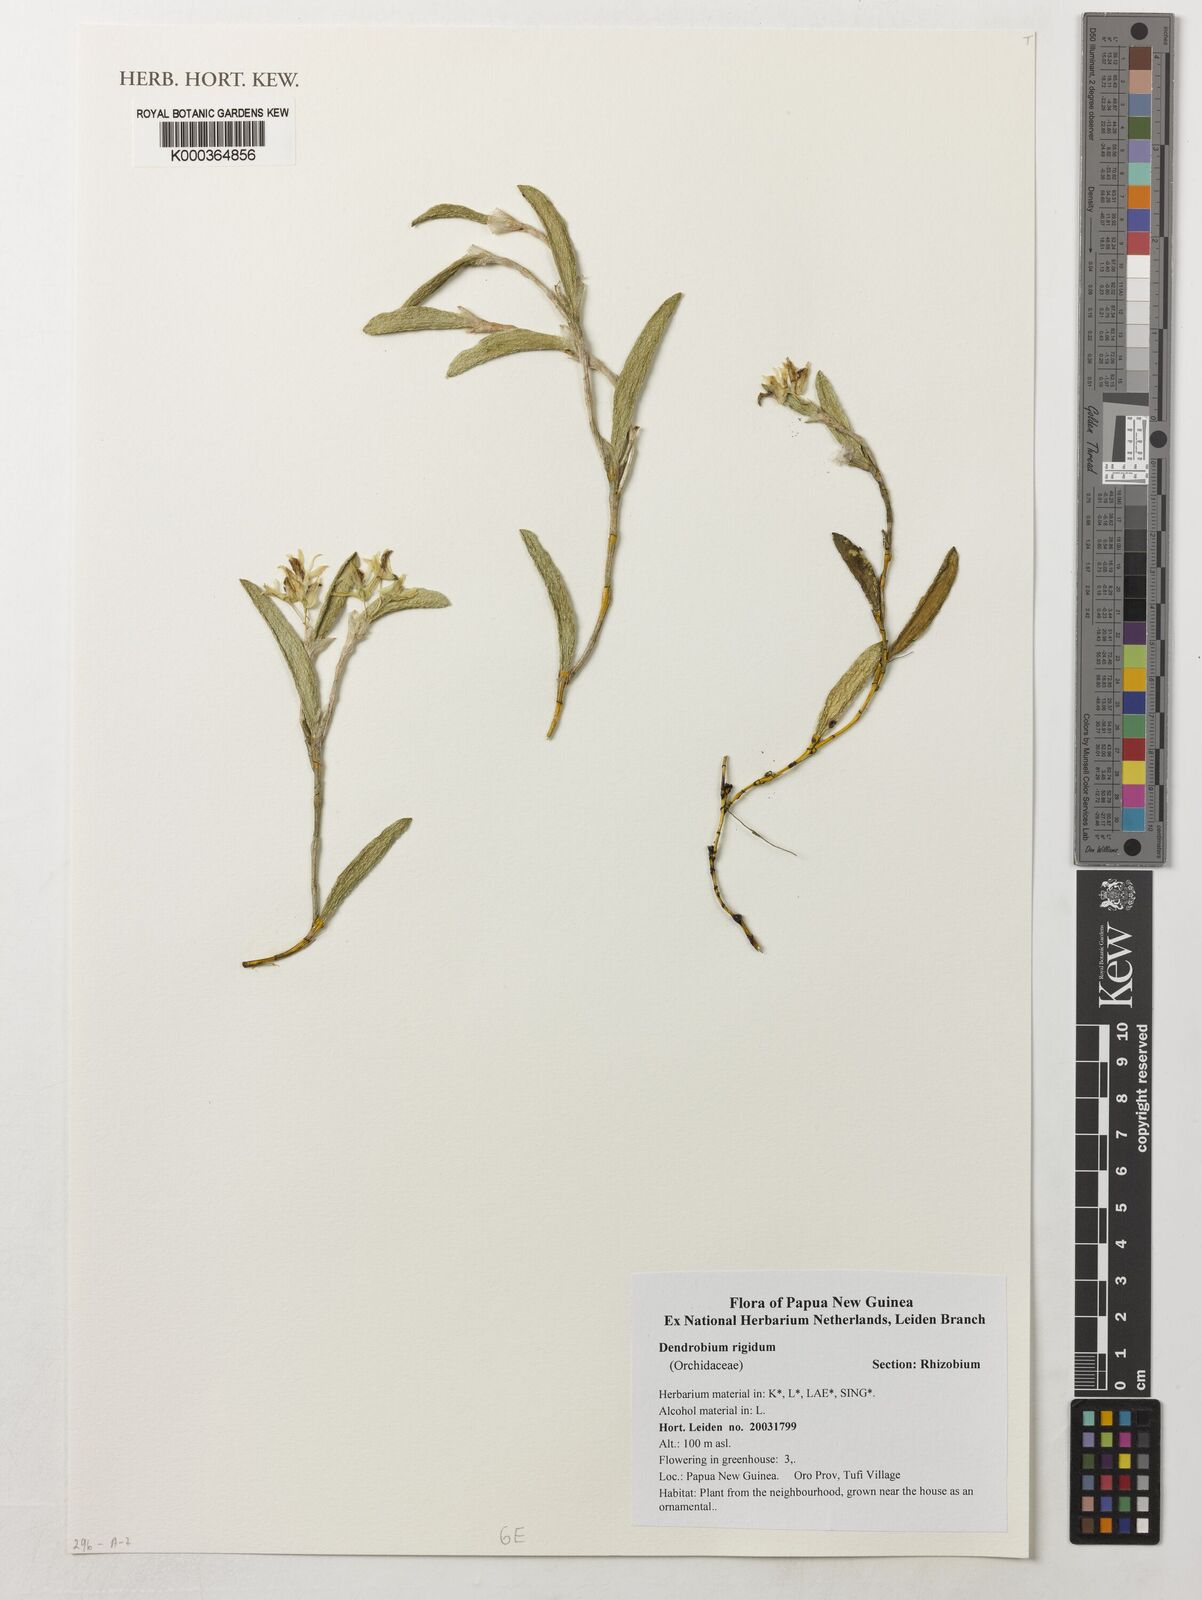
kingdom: Plantae
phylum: Tracheophyta
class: Liliopsida
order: Asparagales
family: Orchidaceae
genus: Dendrobium
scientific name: Dendrobium rigidum
